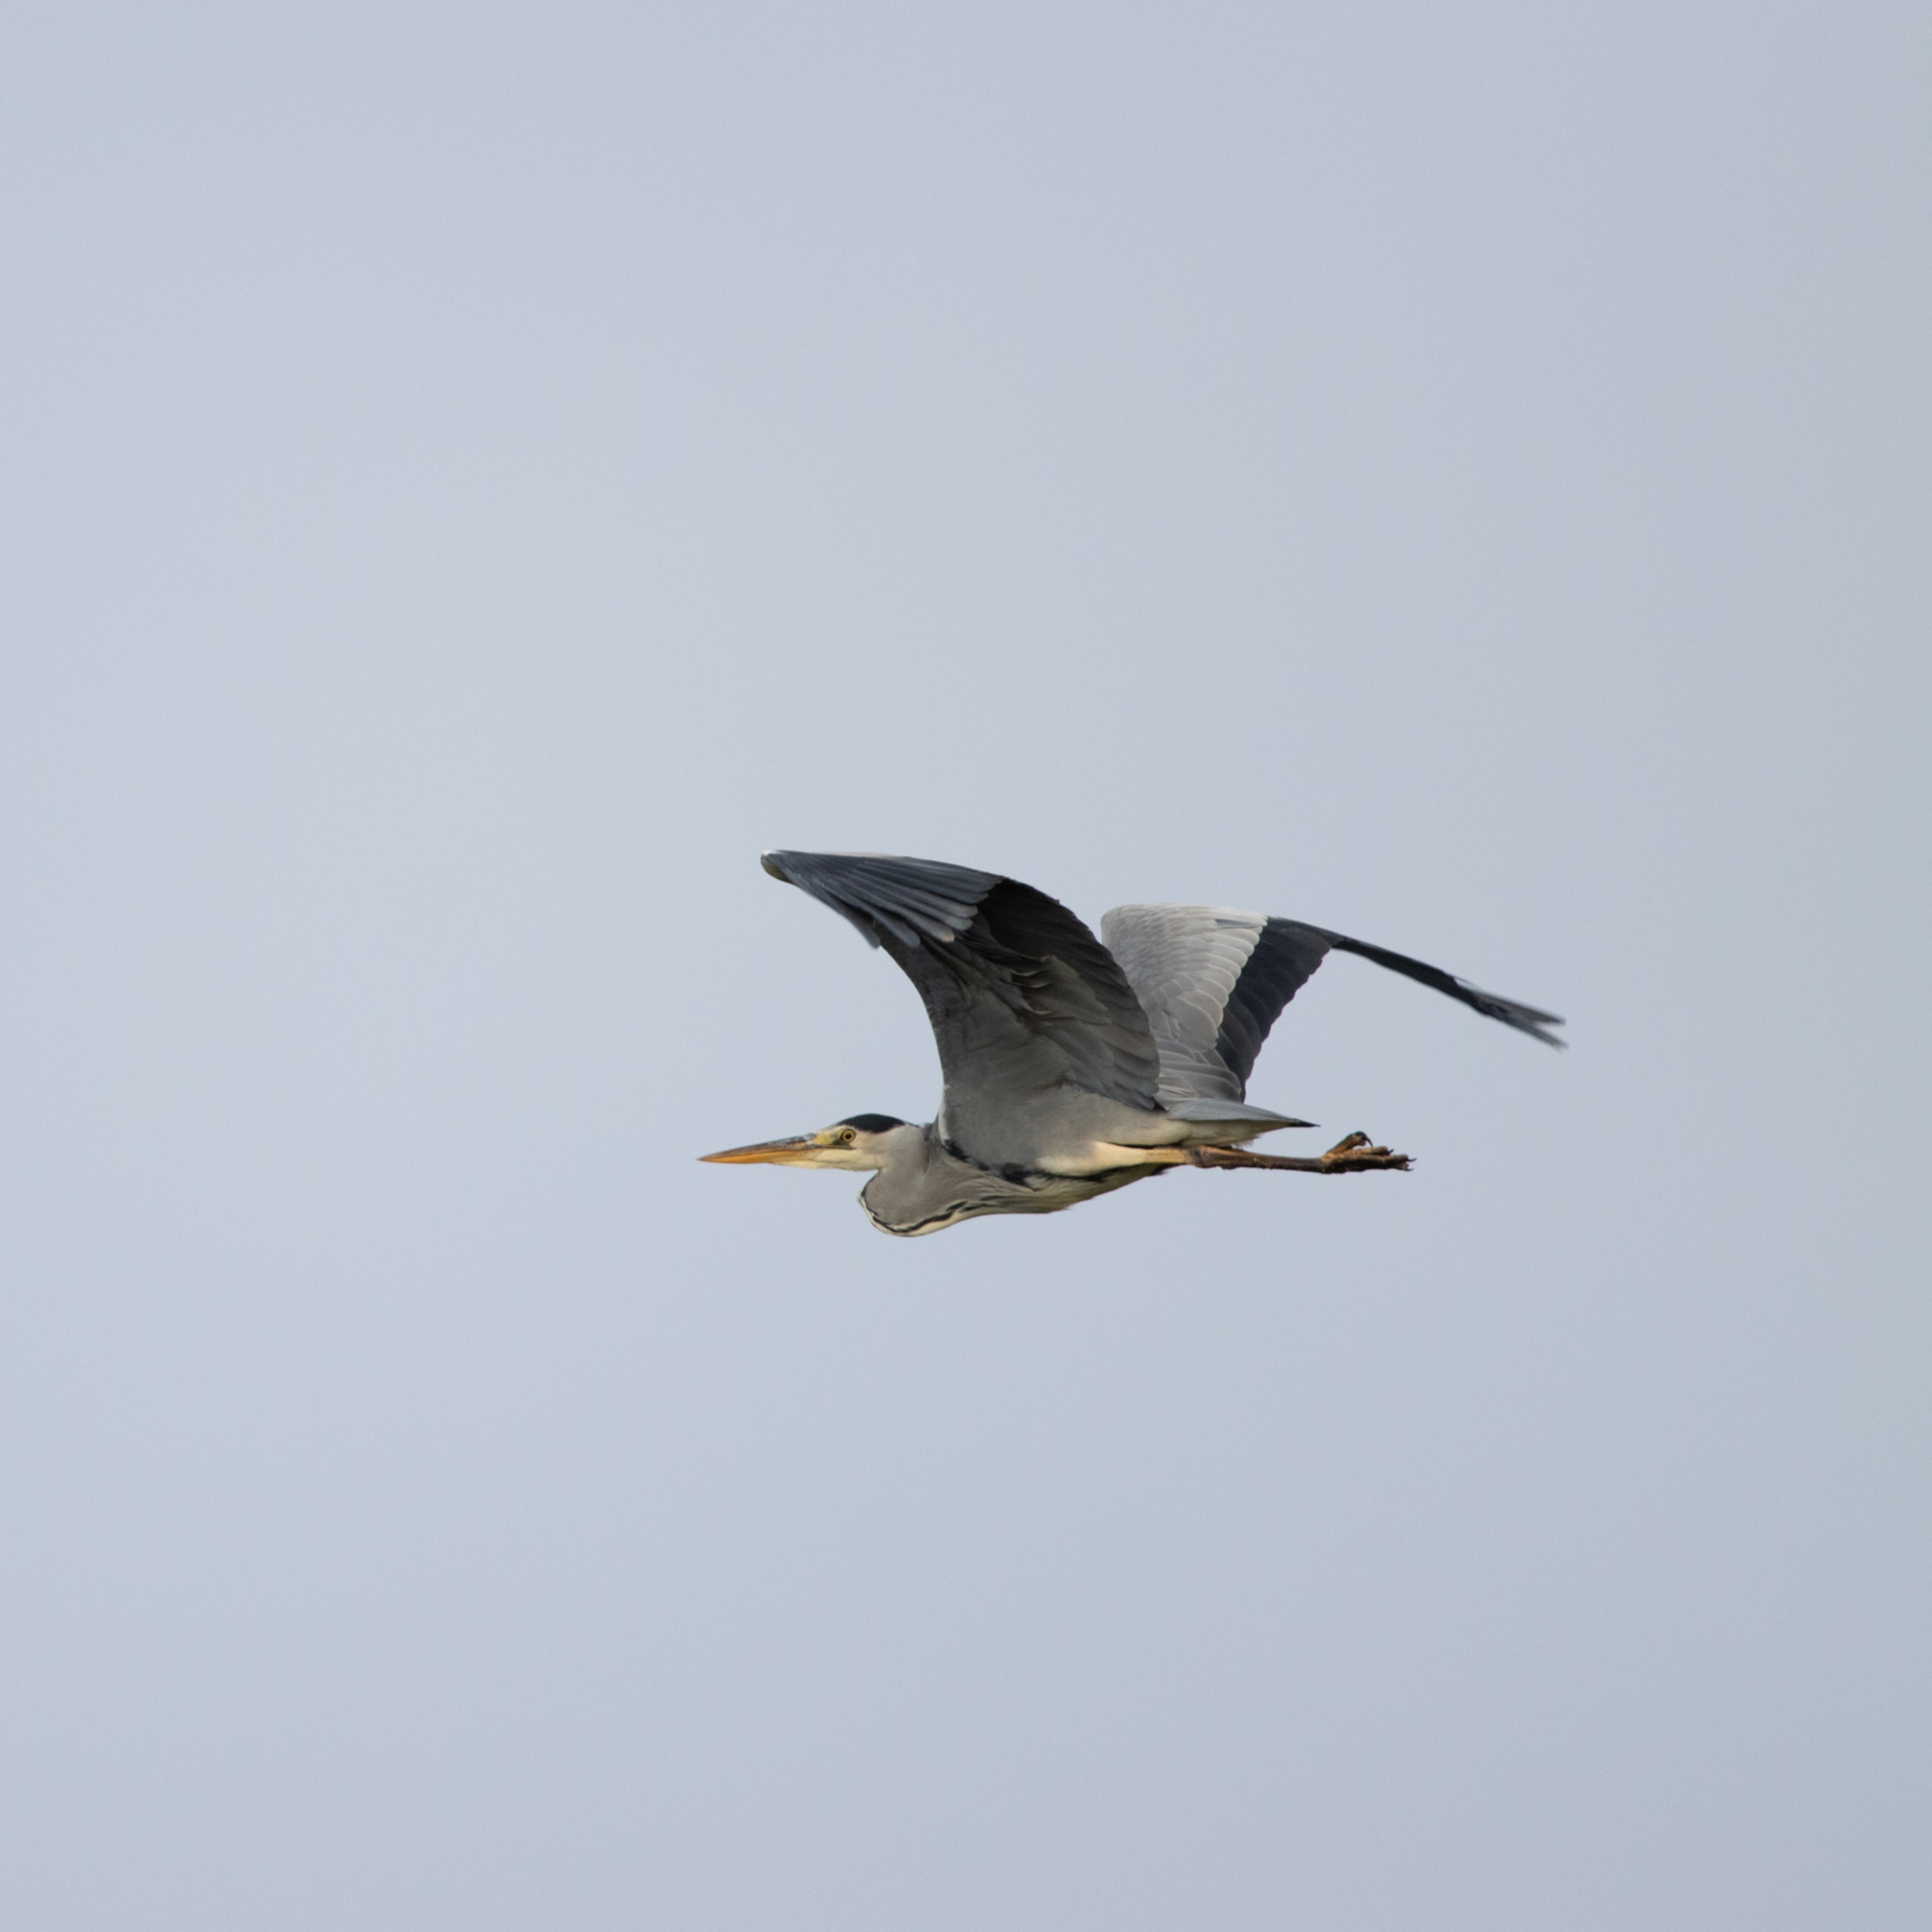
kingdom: Animalia
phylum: Chordata
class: Aves
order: Pelecaniformes
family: Ardeidae
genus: Ardea
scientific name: Ardea cinerea
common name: Fiskehejre
